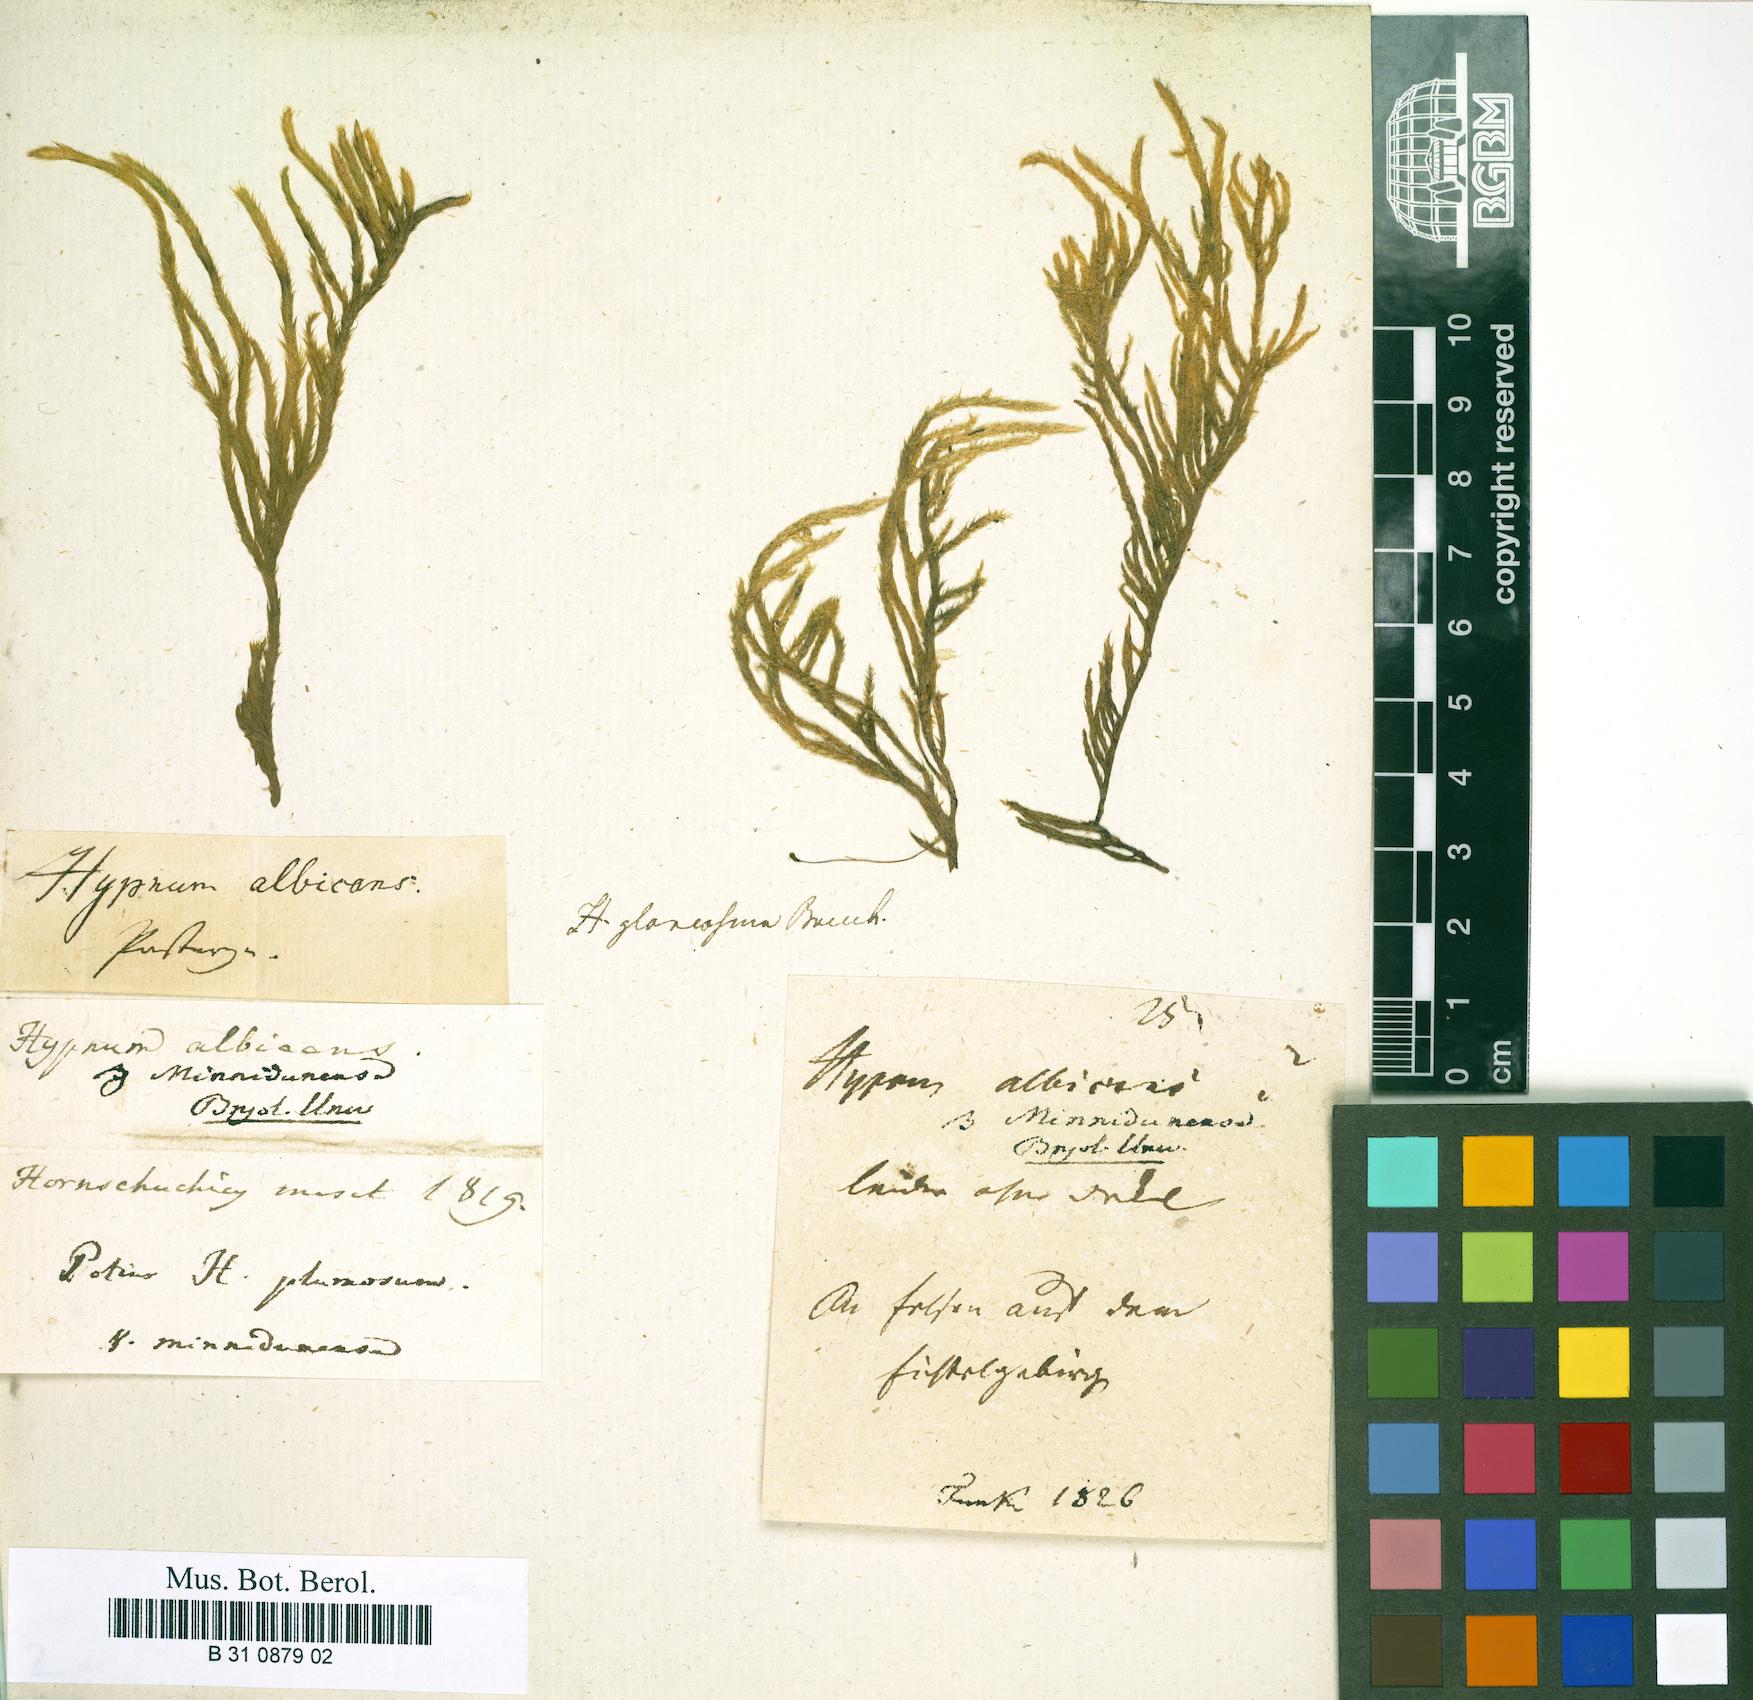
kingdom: Plantae
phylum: Bryophyta
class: Bryopsida
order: Hypnales
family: Brachytheciaceae
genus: Brachythecium
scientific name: Brachythecium albicans
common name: Whitish ragged moss
